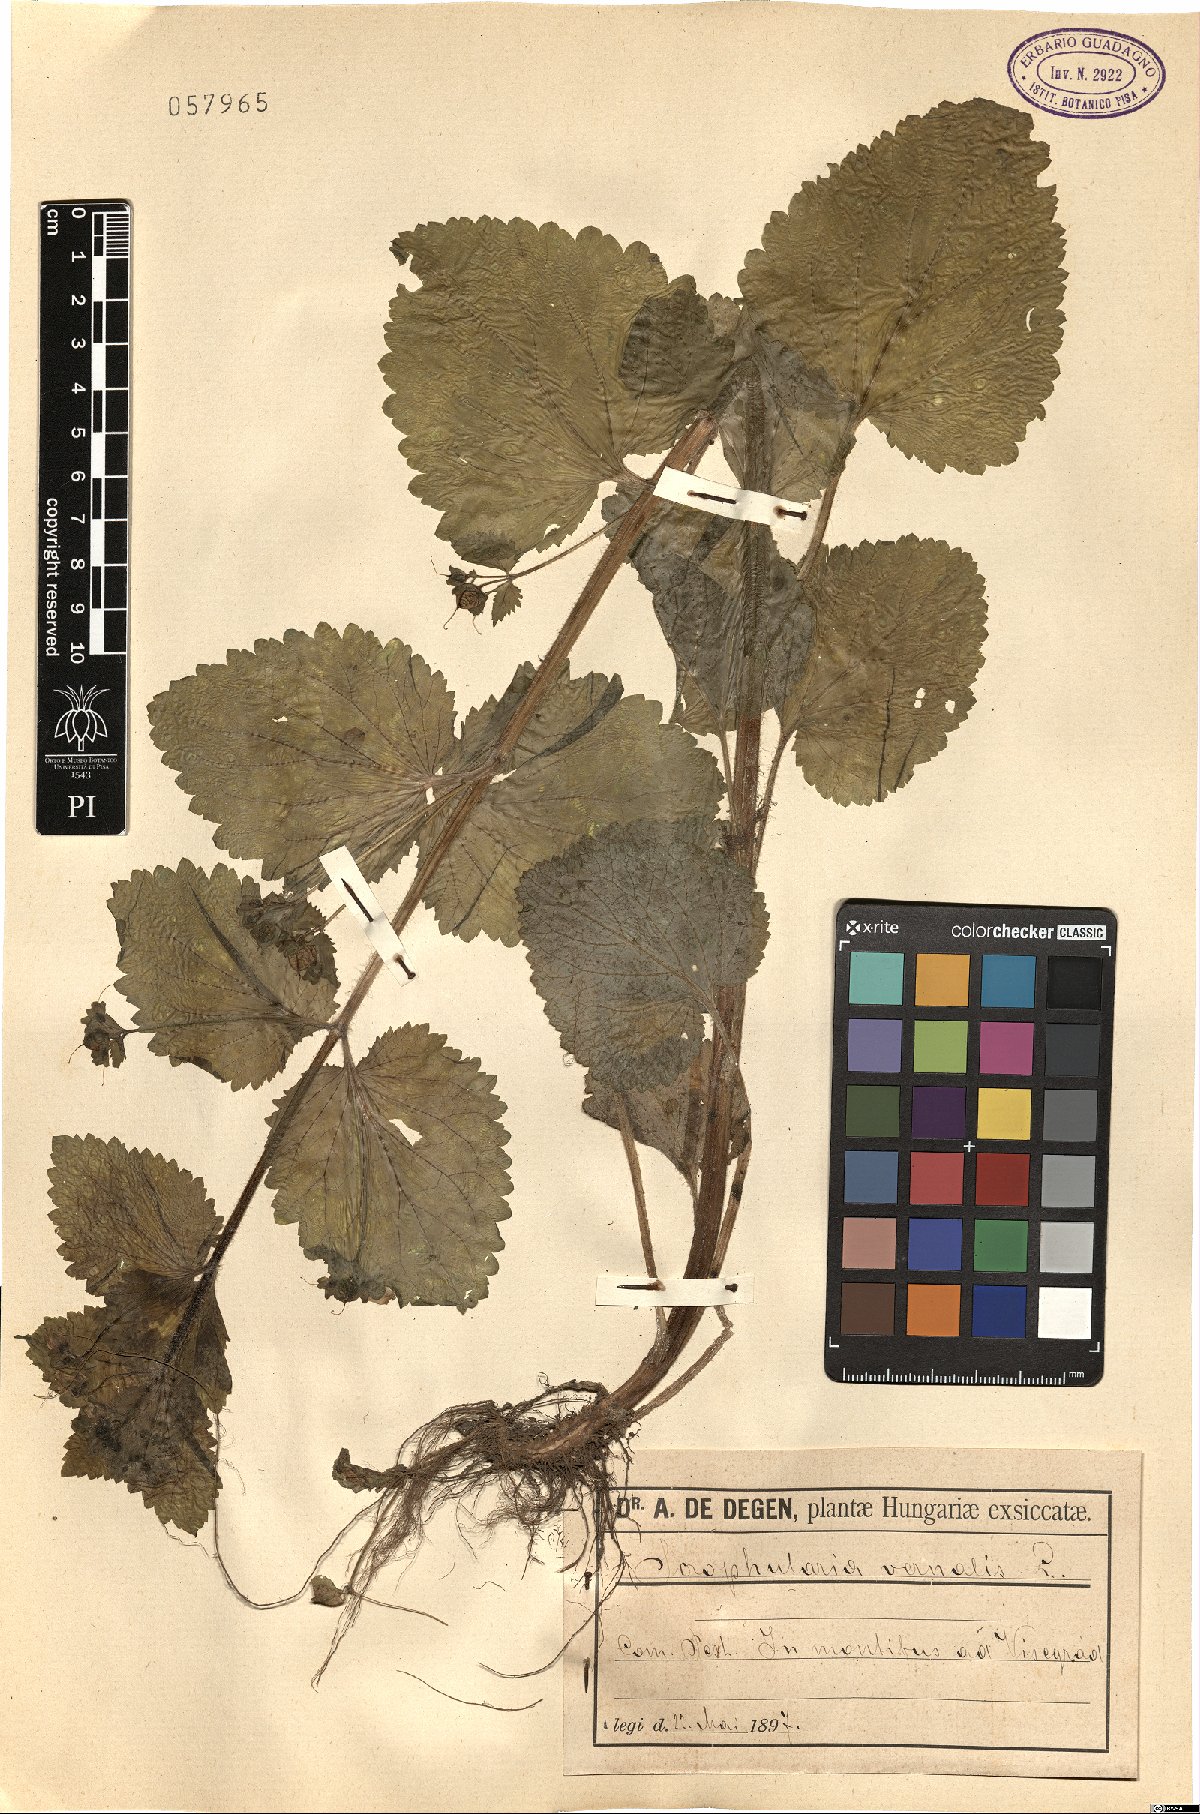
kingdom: Plantae
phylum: Tracheophyta
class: Magnoliopsida
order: Lamiales
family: Scrophulariaceae
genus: Scrophularia
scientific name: Scrophularia vernalis
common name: Yellow figwort
